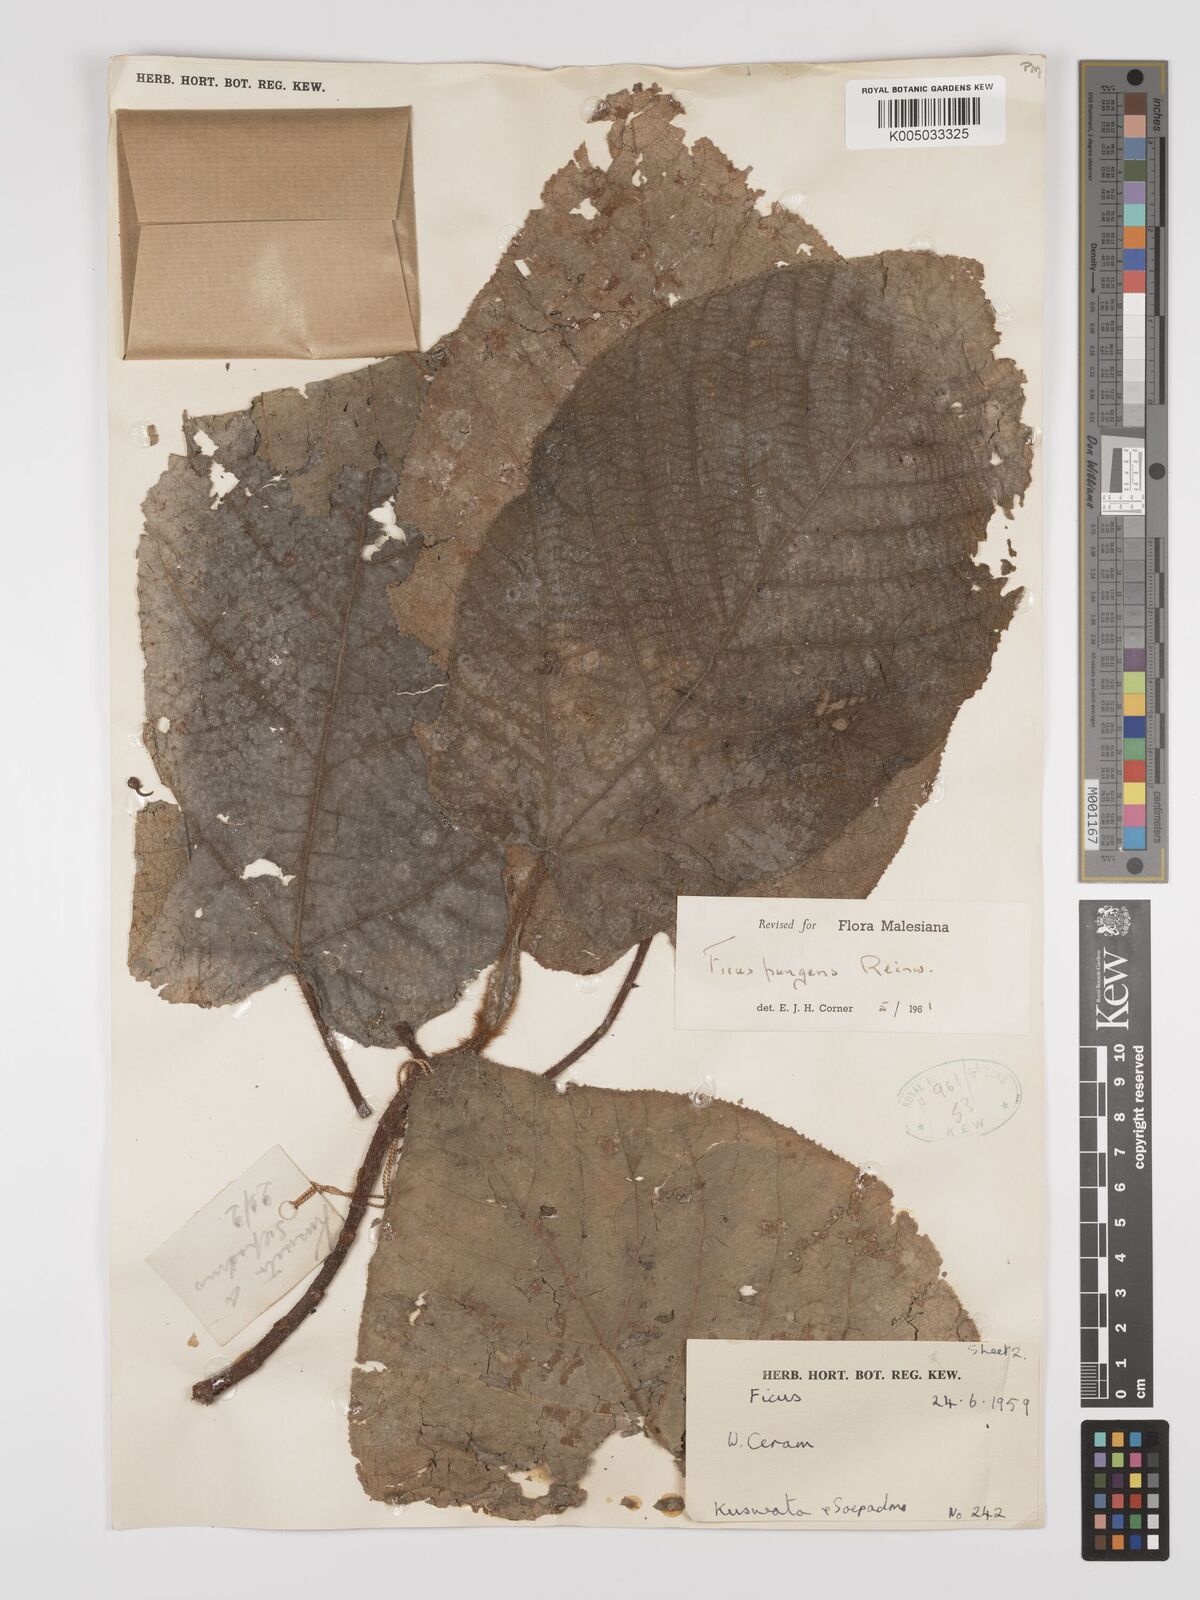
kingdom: Plantae
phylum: Tracheophyta
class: Magnoliopsida
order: Rosales
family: Moraceae
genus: Ficus
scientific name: Ficus pungens
